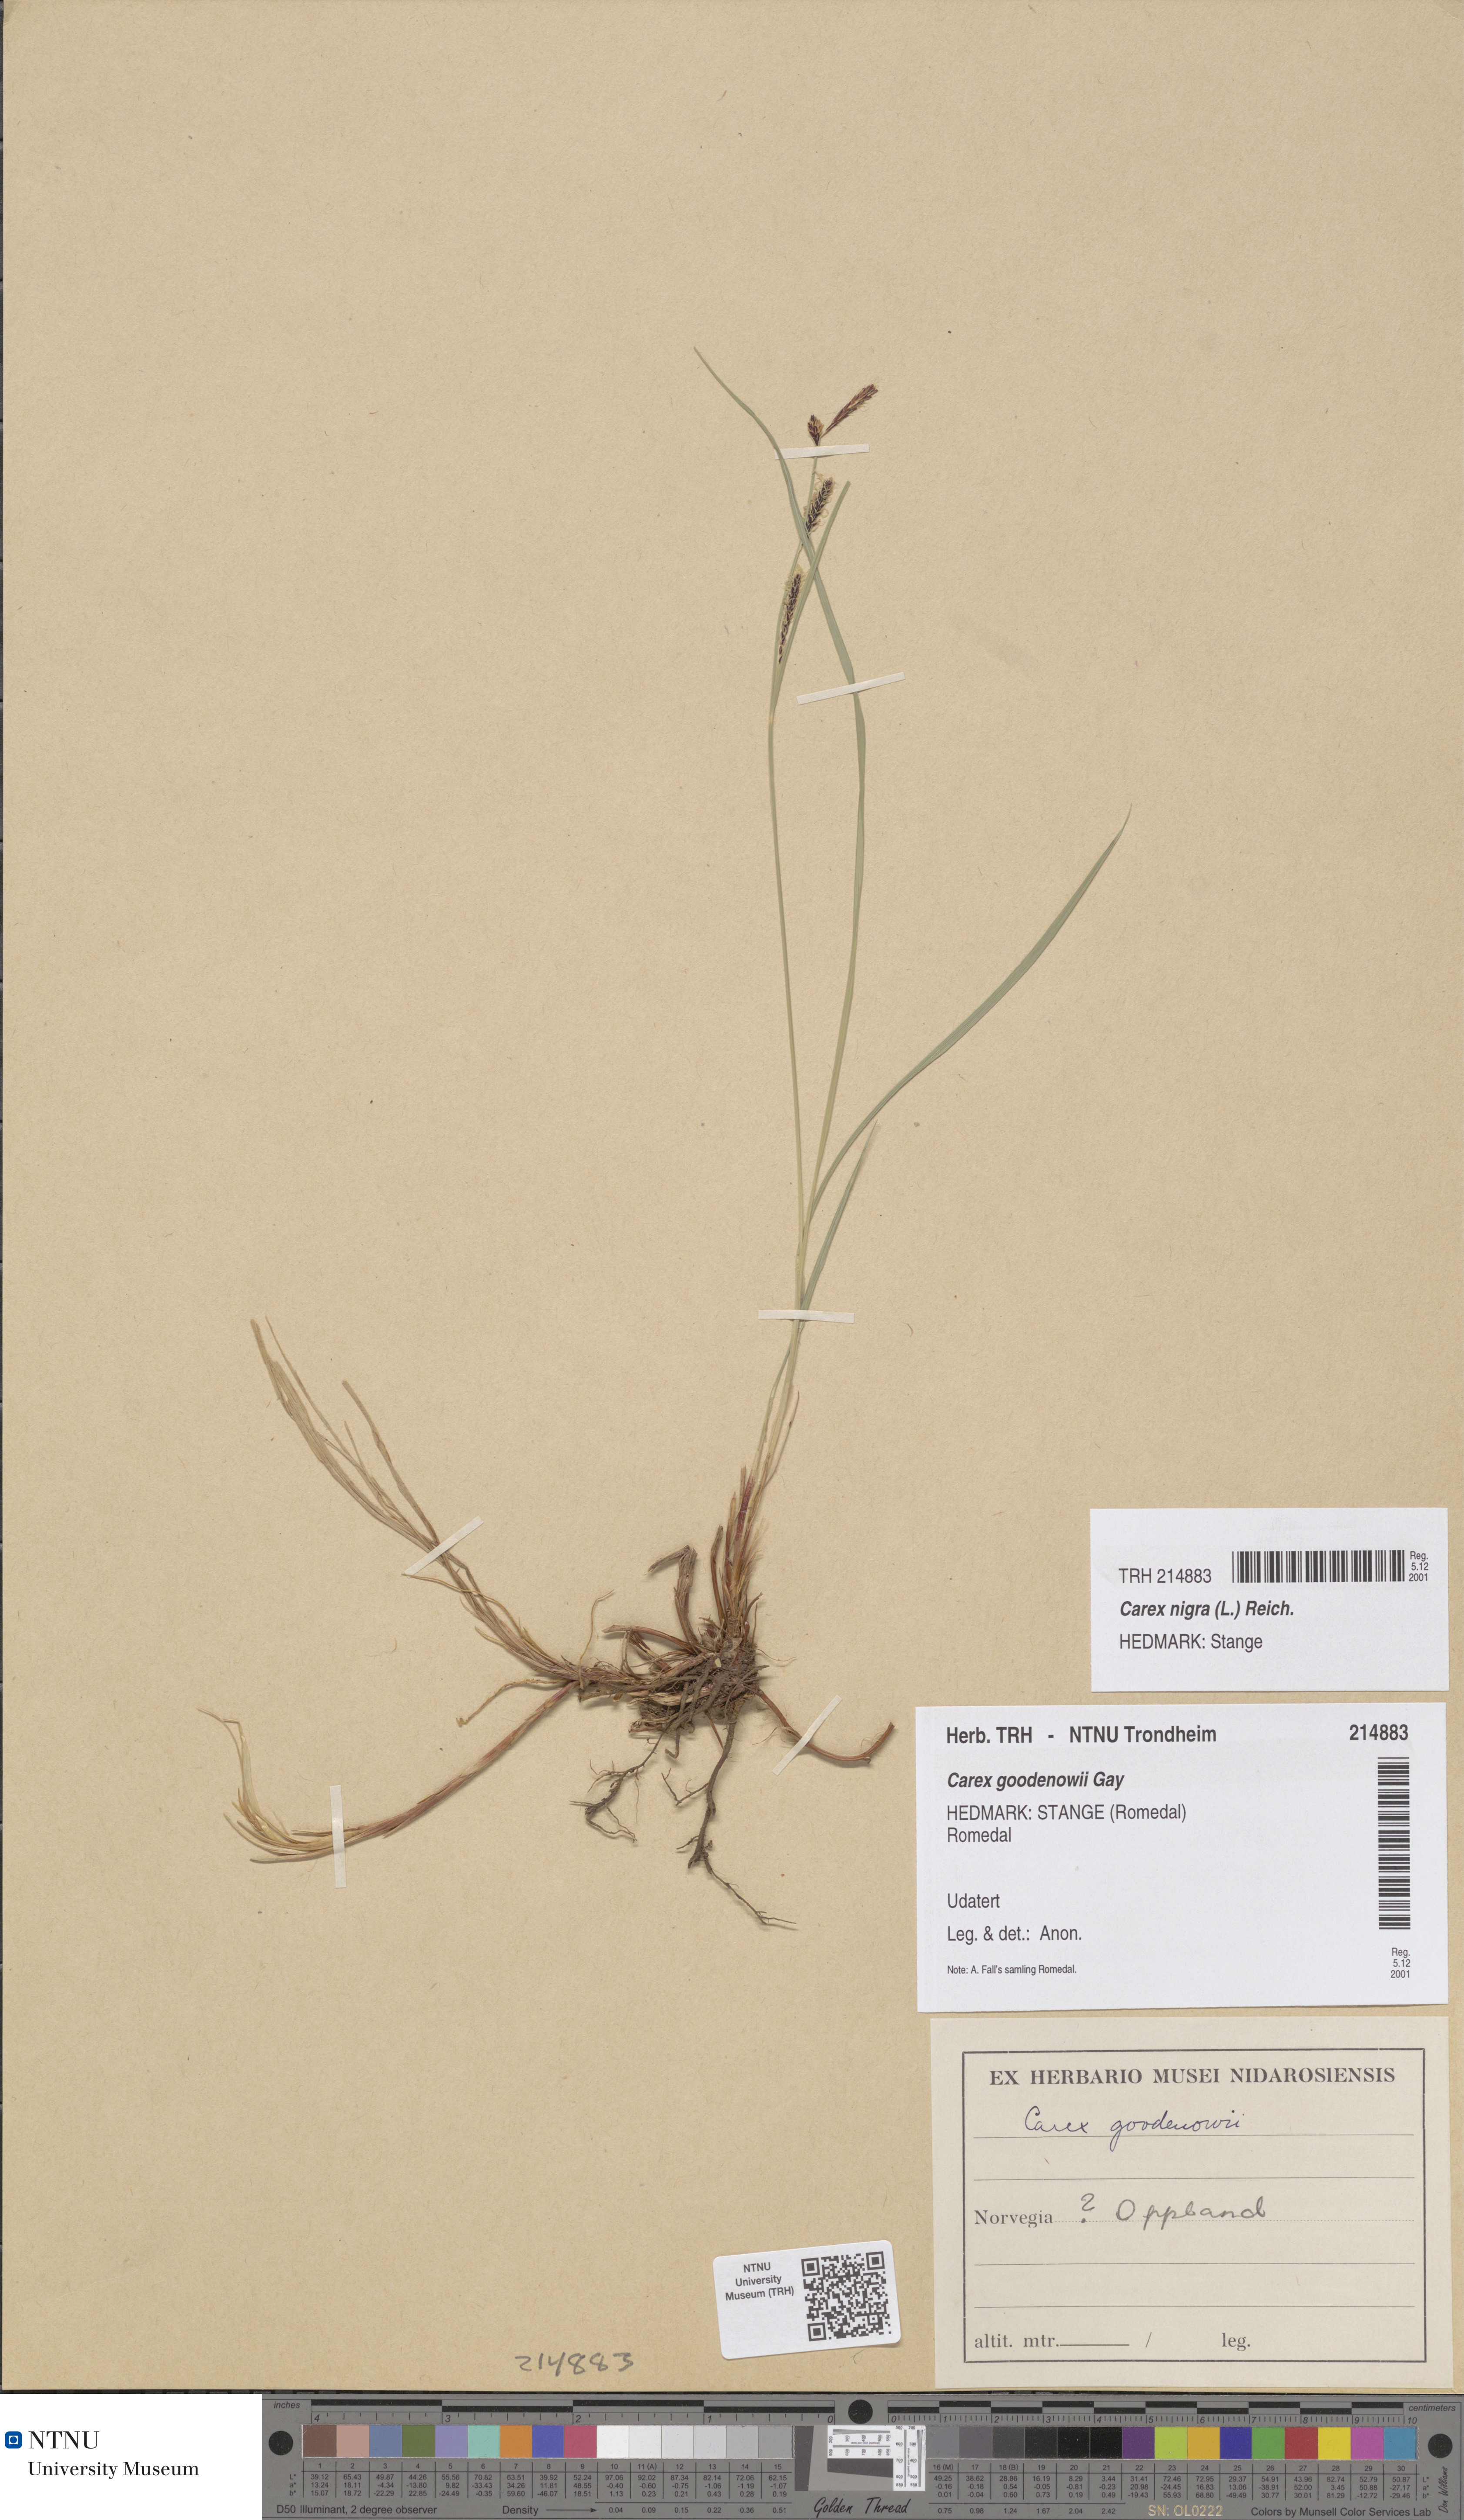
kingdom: Plantae
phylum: Tracheophyta
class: Liliopsida
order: Poales
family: Cyperaceae
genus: Carex
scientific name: Carex nigra
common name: Common sedge
